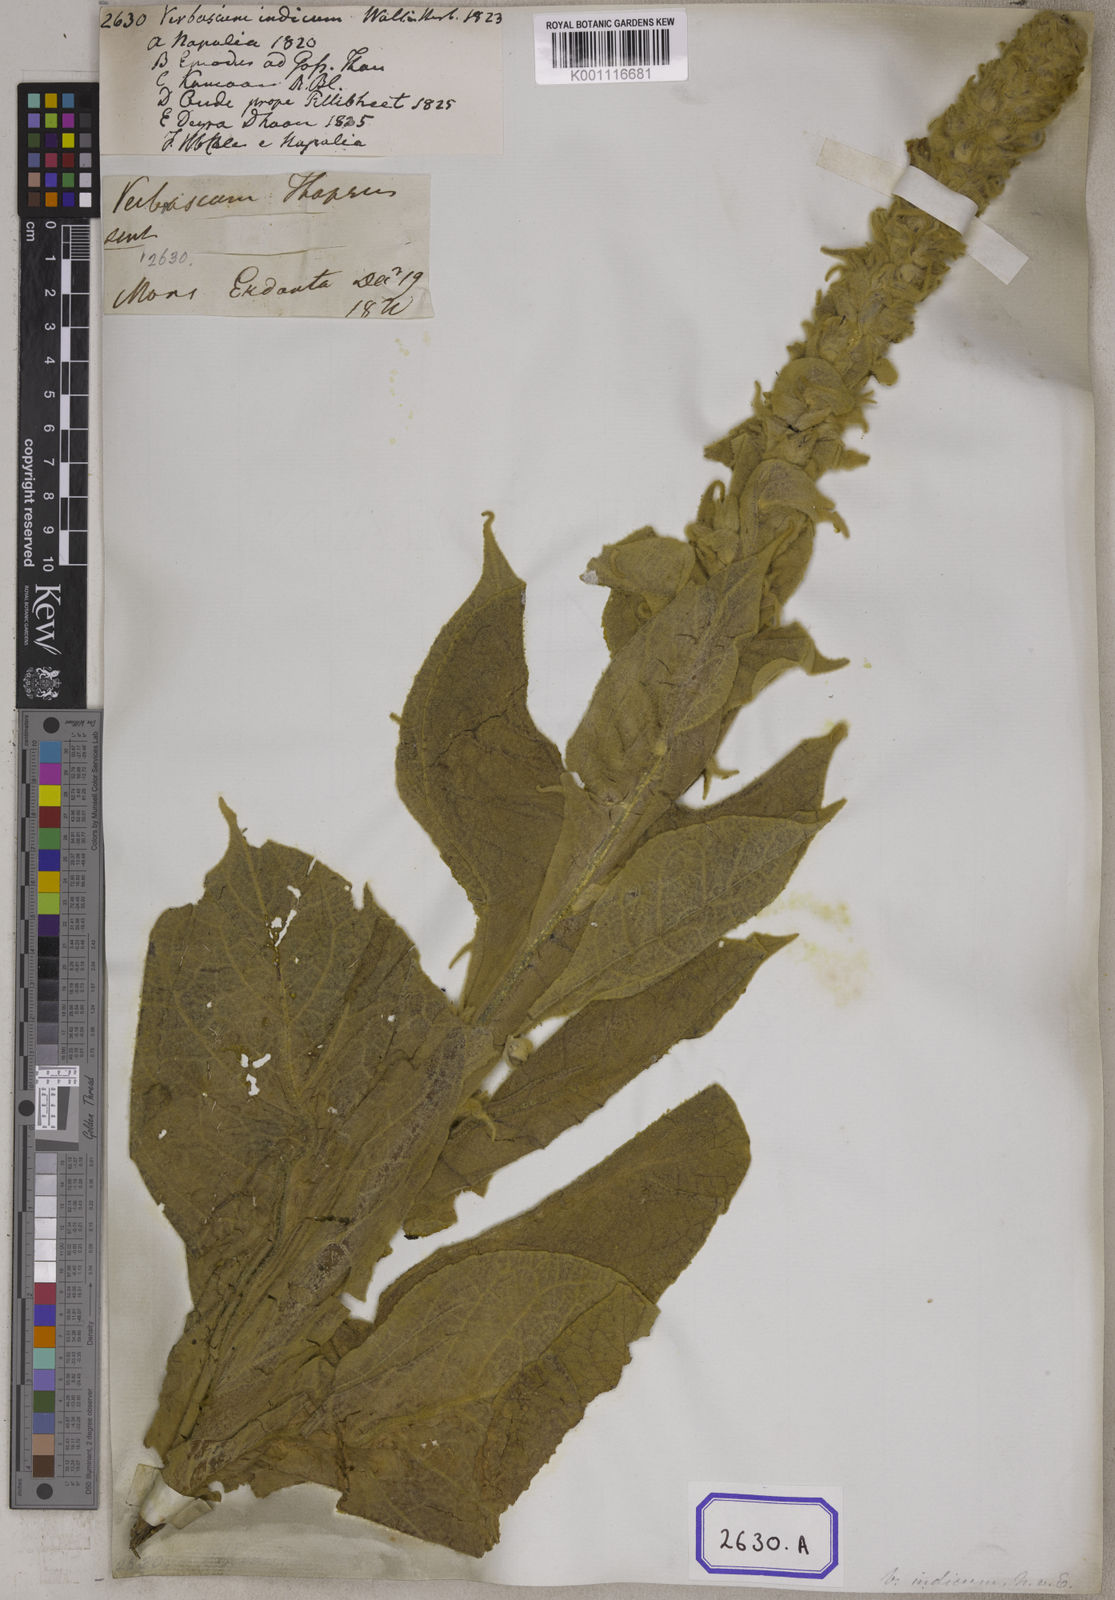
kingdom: Plantae
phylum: Tracheophyta
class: Magnoliopsida
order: Lamiales
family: Scrophulariaceae
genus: Verbascum
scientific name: Verbascum thapsus
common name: Common mullein
